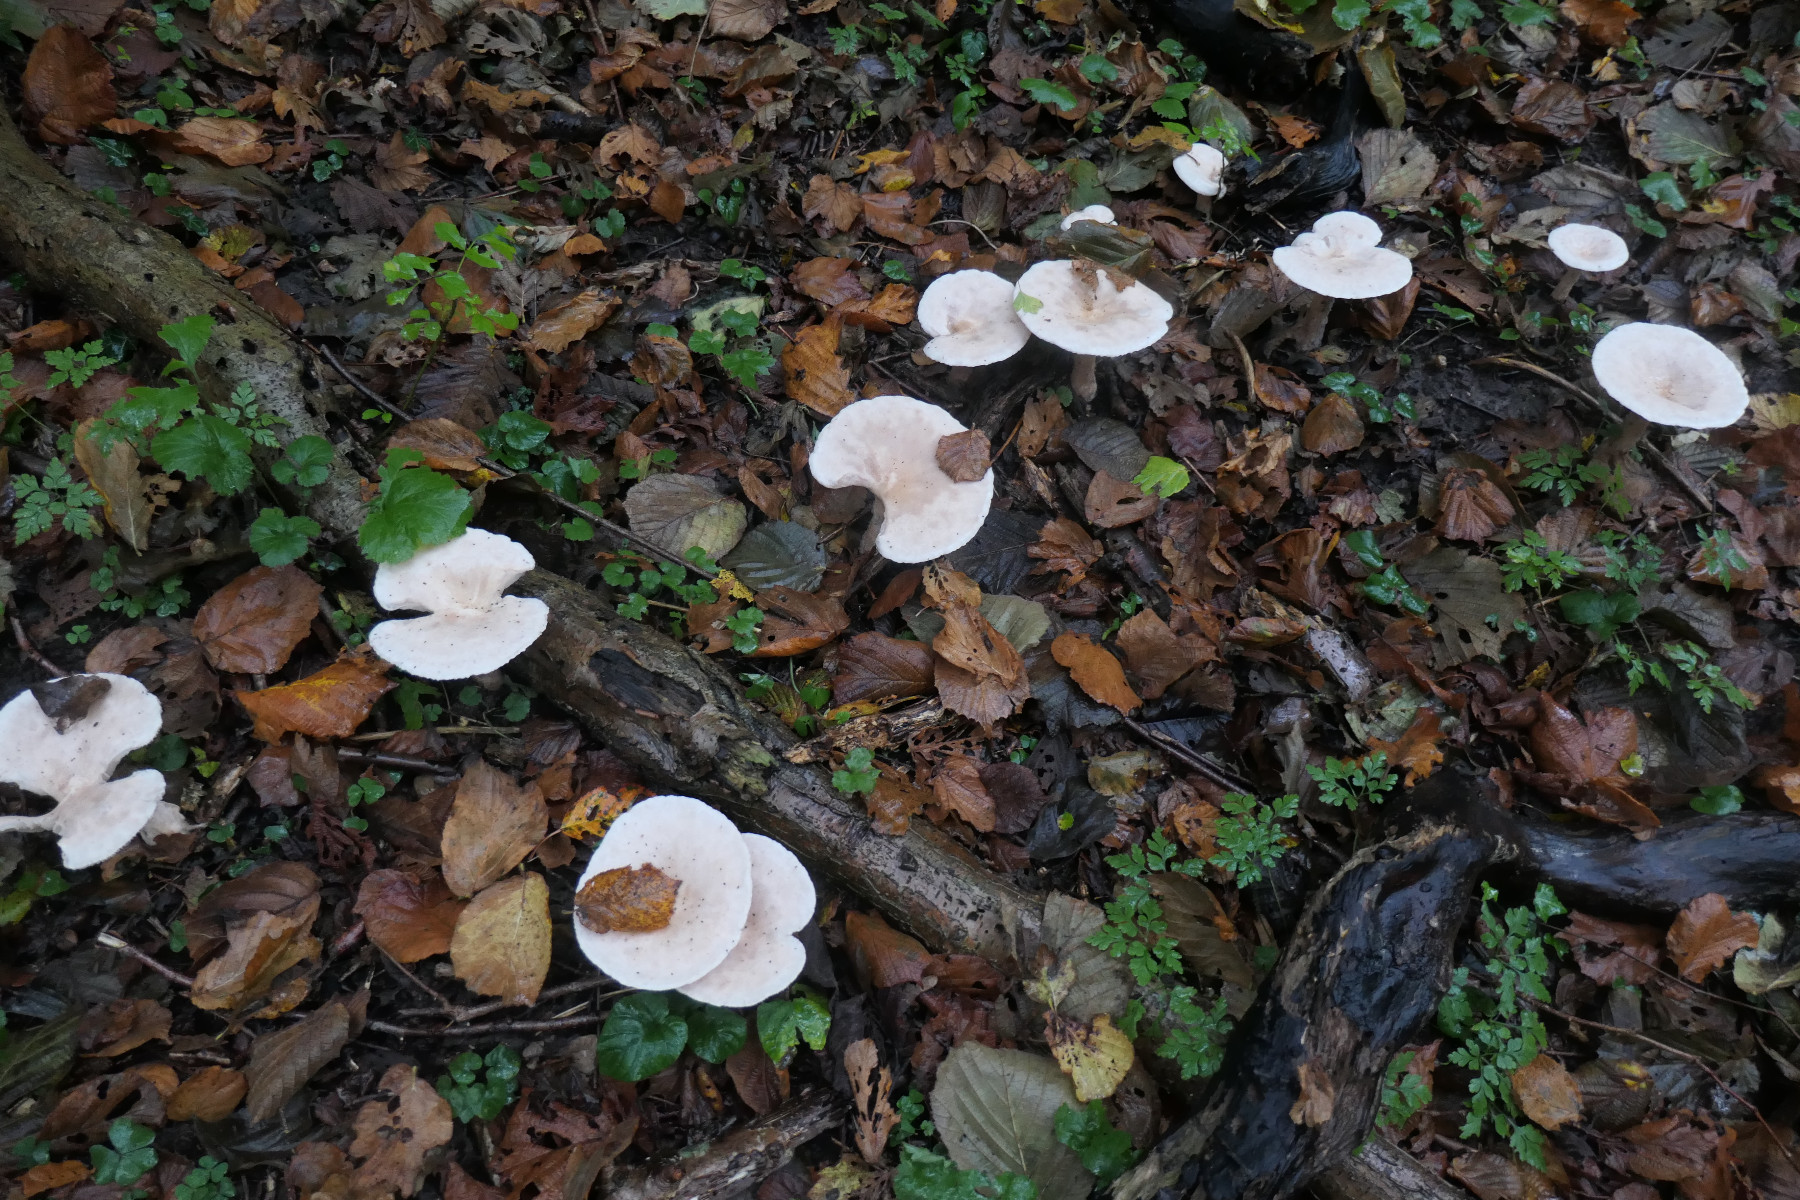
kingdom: Fungi
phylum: Basidiomycota
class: Agaricomycetes
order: Agaricales
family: Tricholomataceae
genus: Infundibulicybe
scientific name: Infundibulicybe geotropa
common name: stor tragthat
